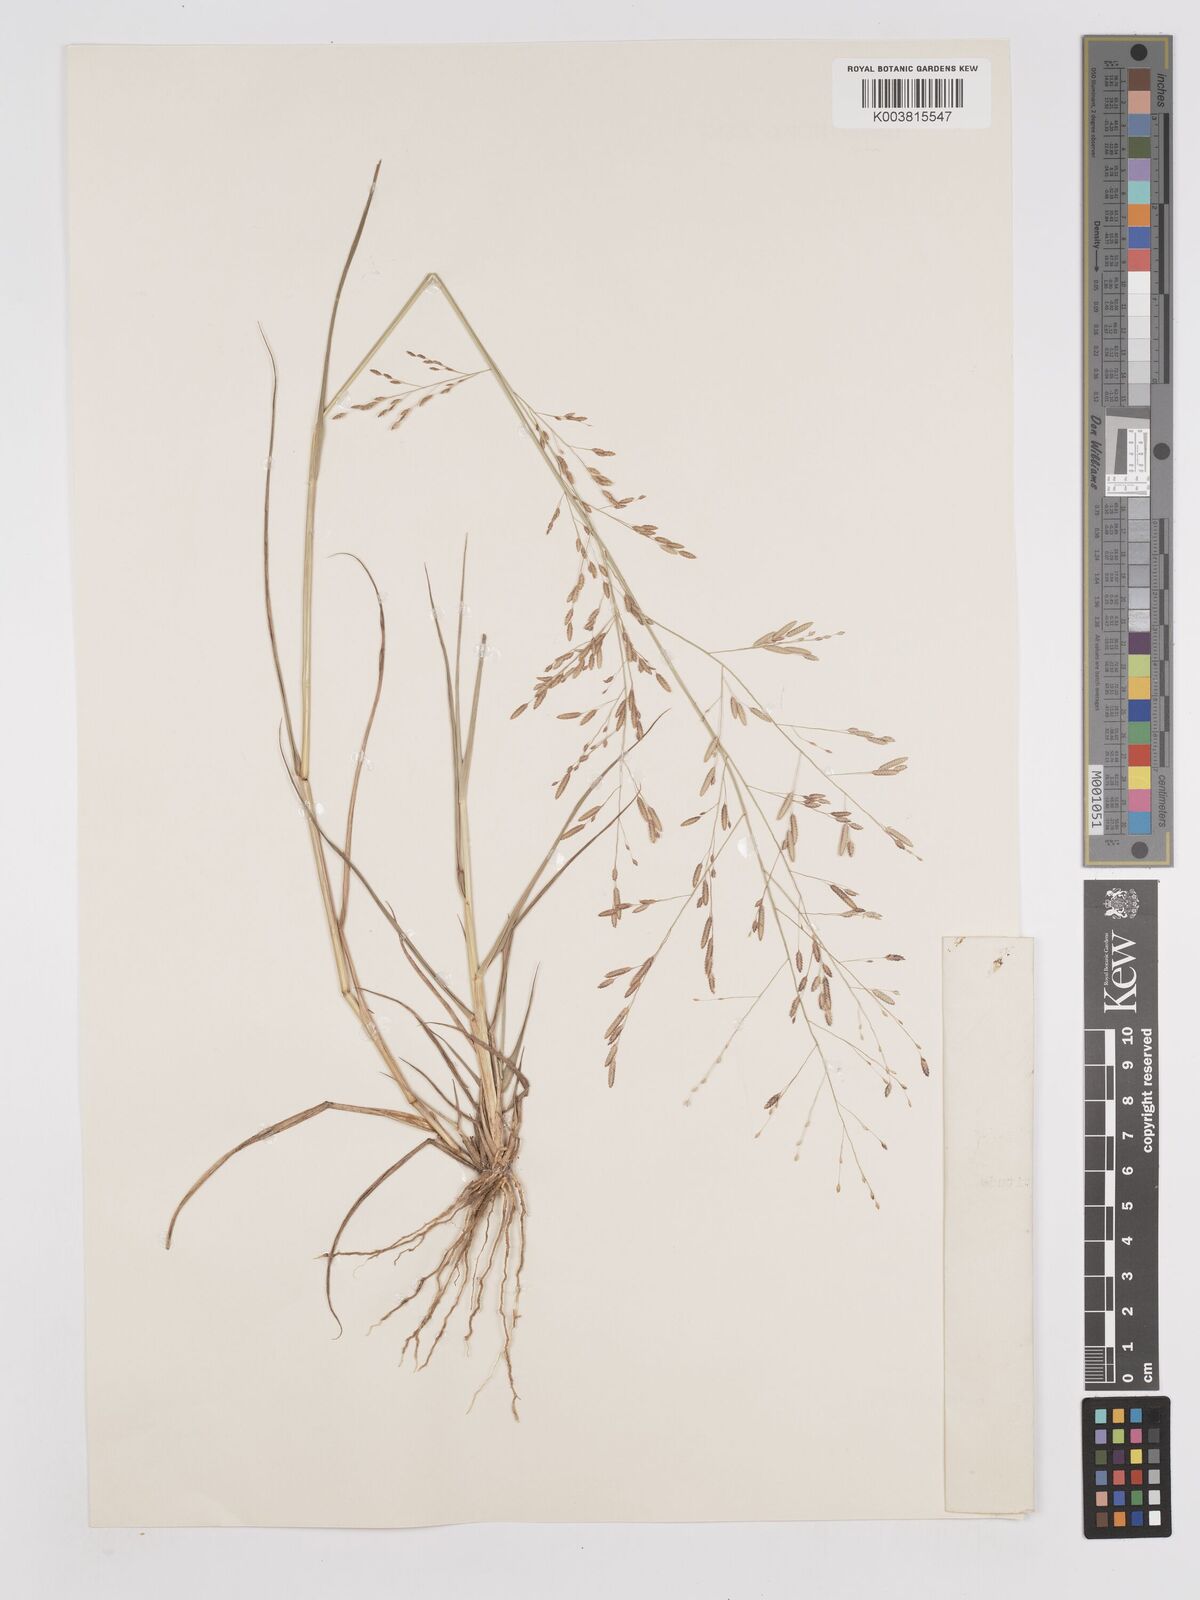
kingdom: Plantae
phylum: Tracheophyta
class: Liliopsida
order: Poales
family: Poaceae
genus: Eragrostis
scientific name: Eragrostis tremula
